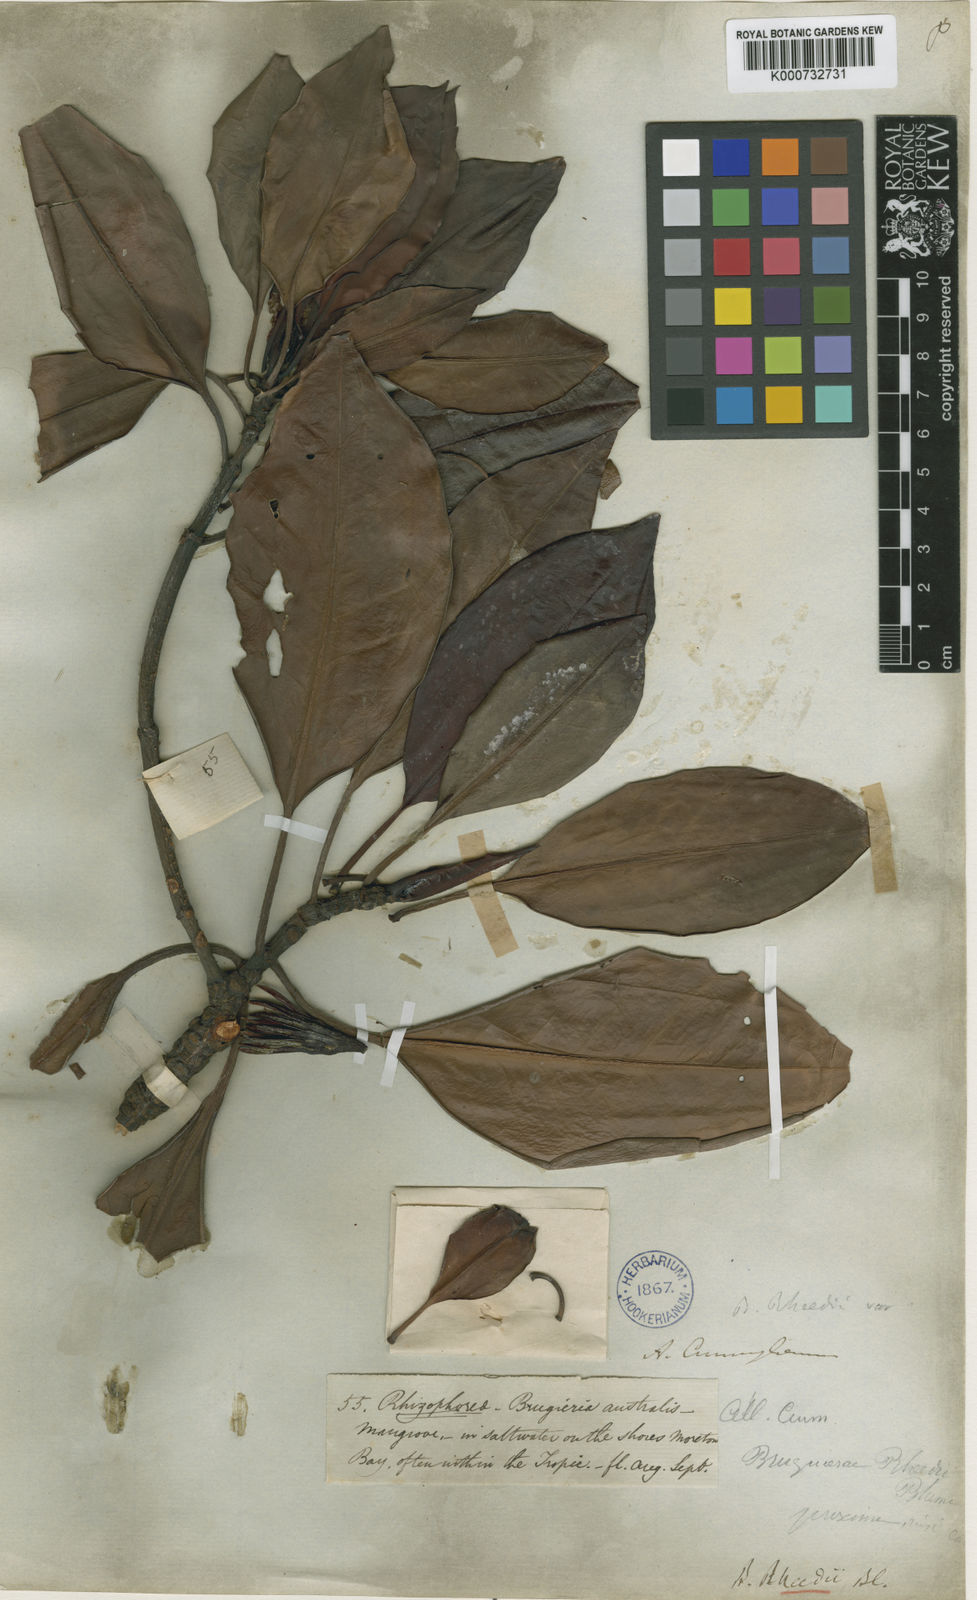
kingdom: Plantae
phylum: Tracheophyta
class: Magnoliopsida
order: Malpighiales
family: Rhizophoraceae
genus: Bruguiera
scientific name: Bruguiera
